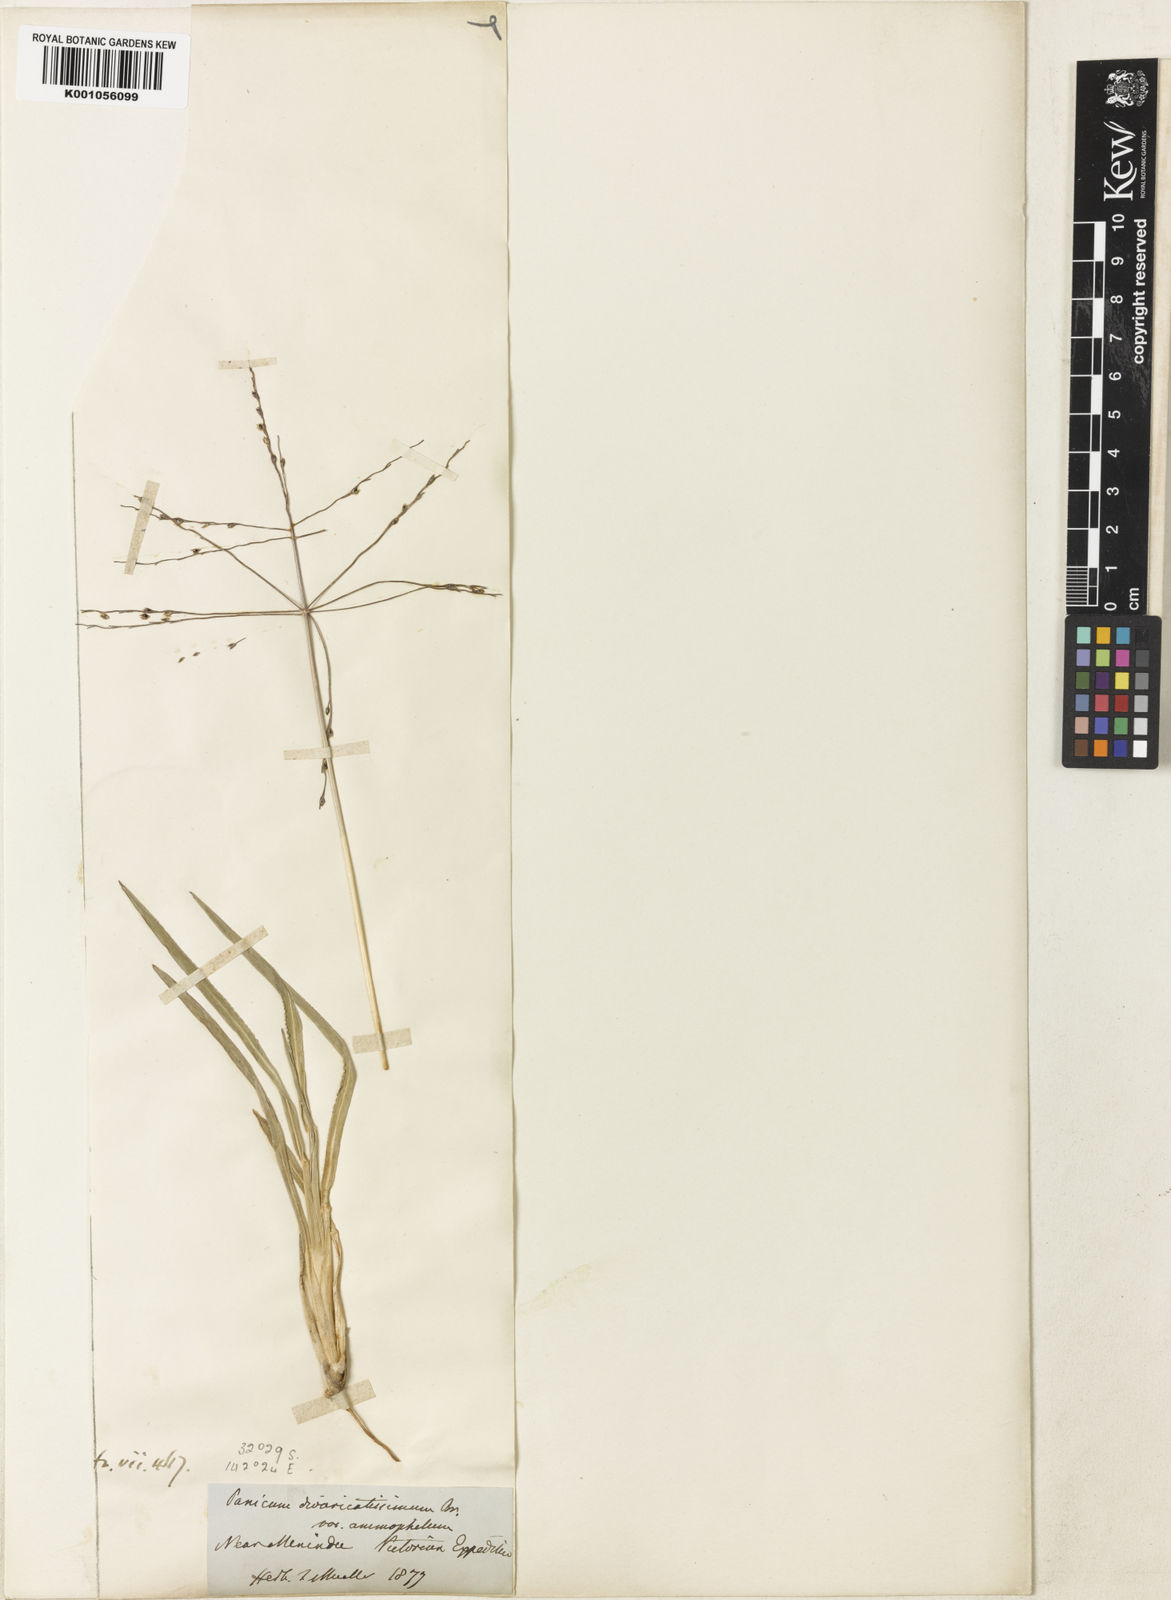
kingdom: Plantae
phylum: Tracheophyta
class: Liliopsida
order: Poales
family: Poaceae
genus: Digitaria
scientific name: Digitaria ammophila
